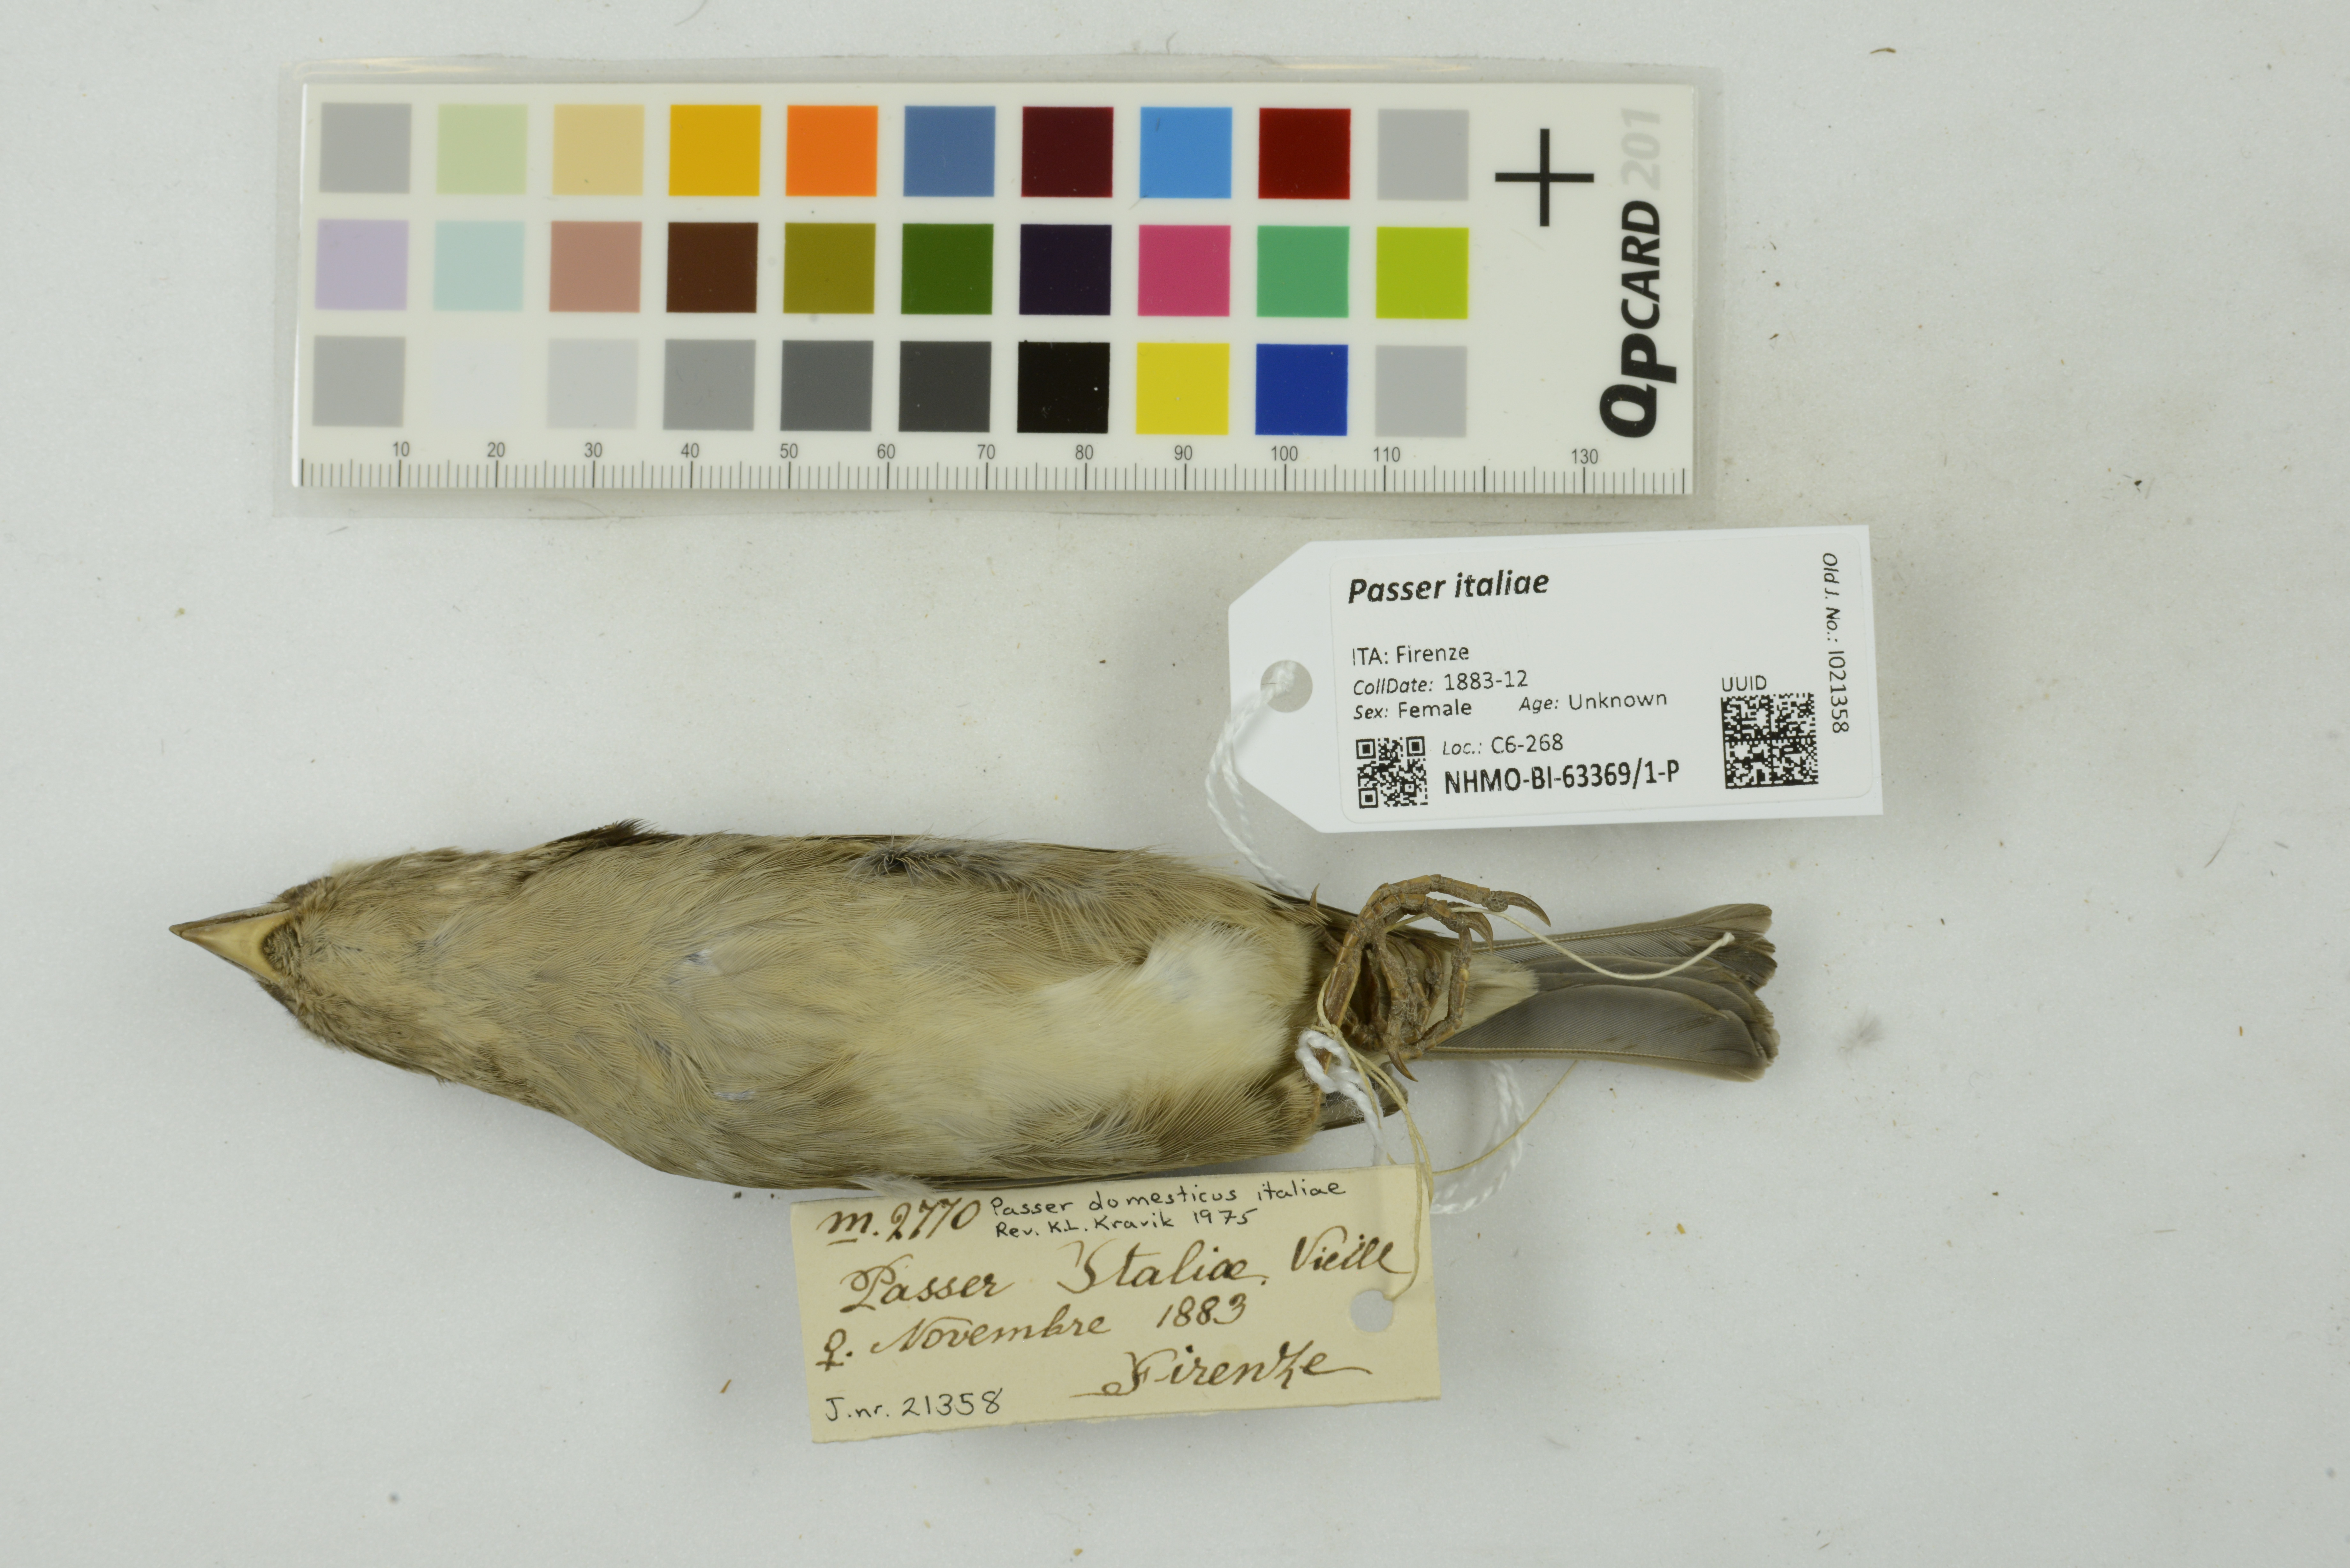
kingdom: Animalia
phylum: Chordata
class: Aves
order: Passeriformes
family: Passeridae
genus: Passer
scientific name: Passer italiae
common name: Italian sparrow
